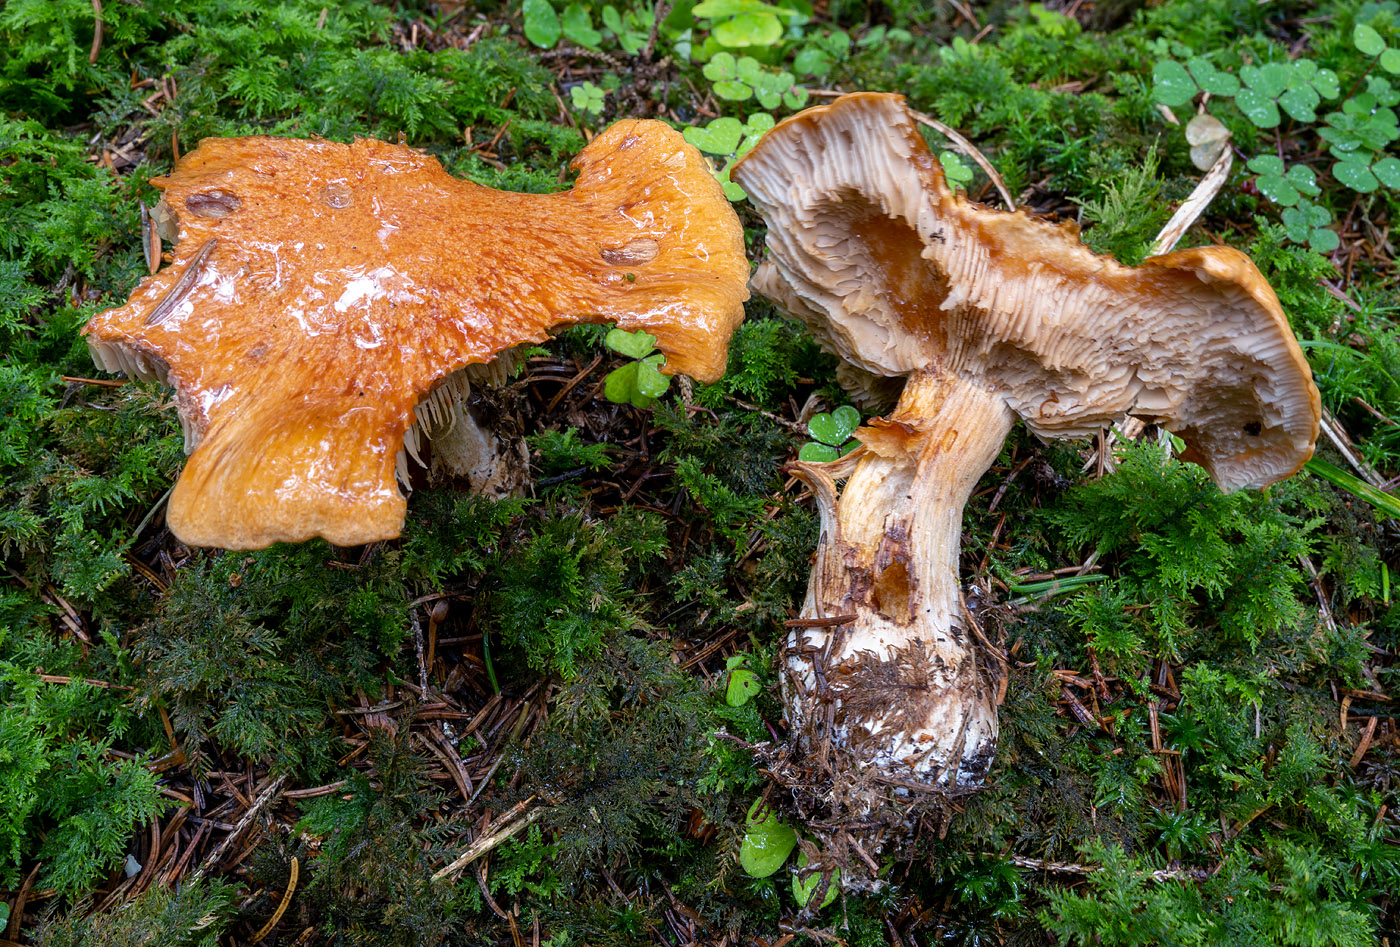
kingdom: Fungi
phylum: Basidiomycota
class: Agaricomycetes
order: Agaricales
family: Cortinariaceae
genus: Thaxterogaster
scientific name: Thaxterogaster rufoallutus
